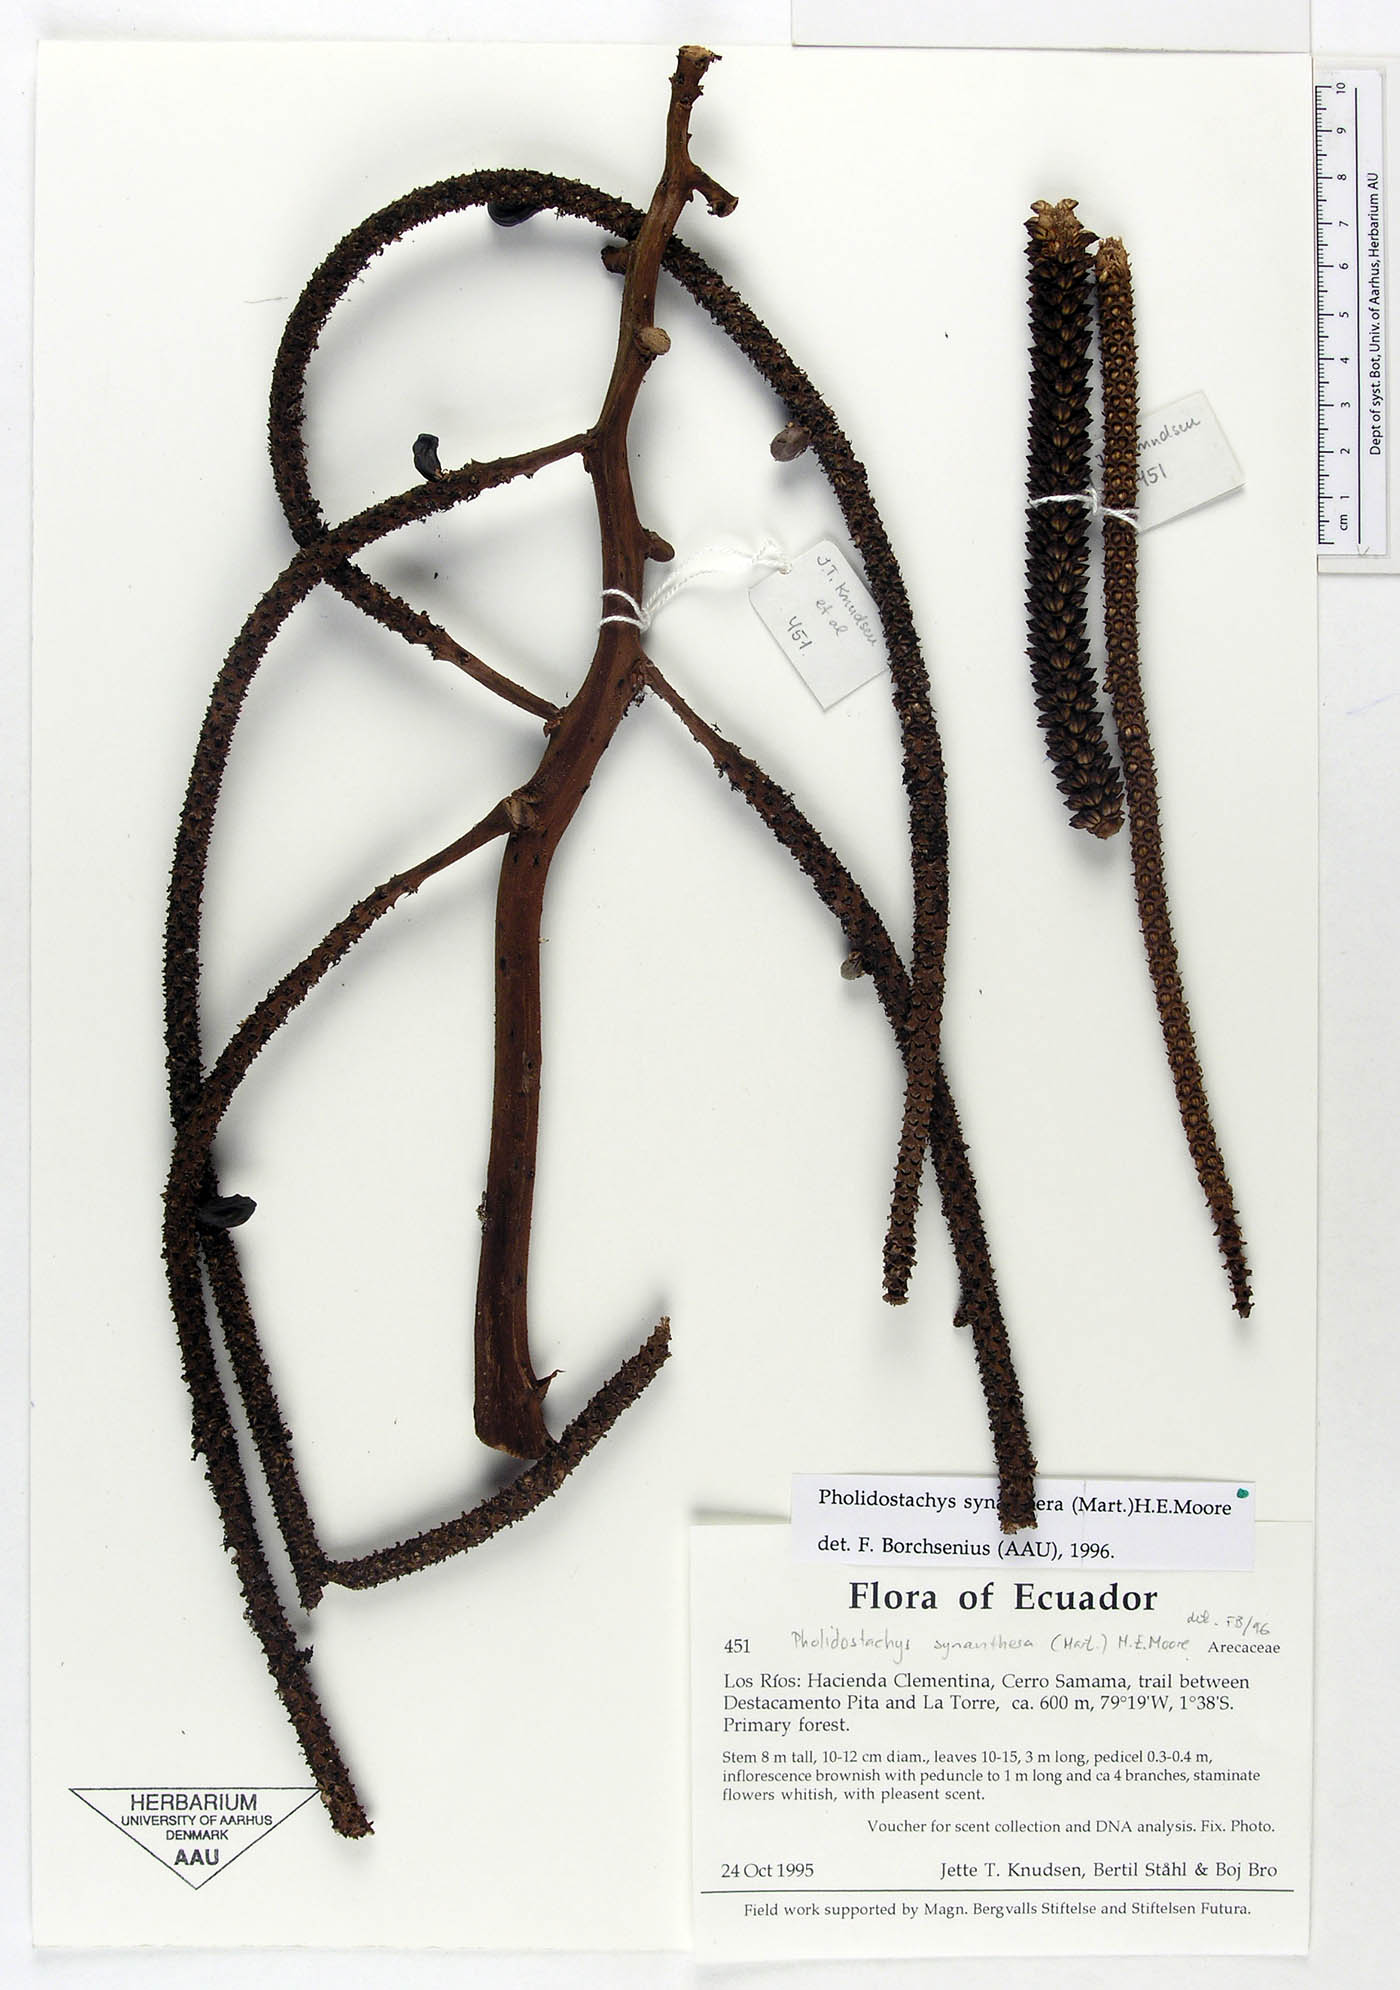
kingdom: Plantae
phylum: Tracheophyta
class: Liliopsida
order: Arecales
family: Arecaceae
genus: Pholidostachys
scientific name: Pholidostachys occidentalis
